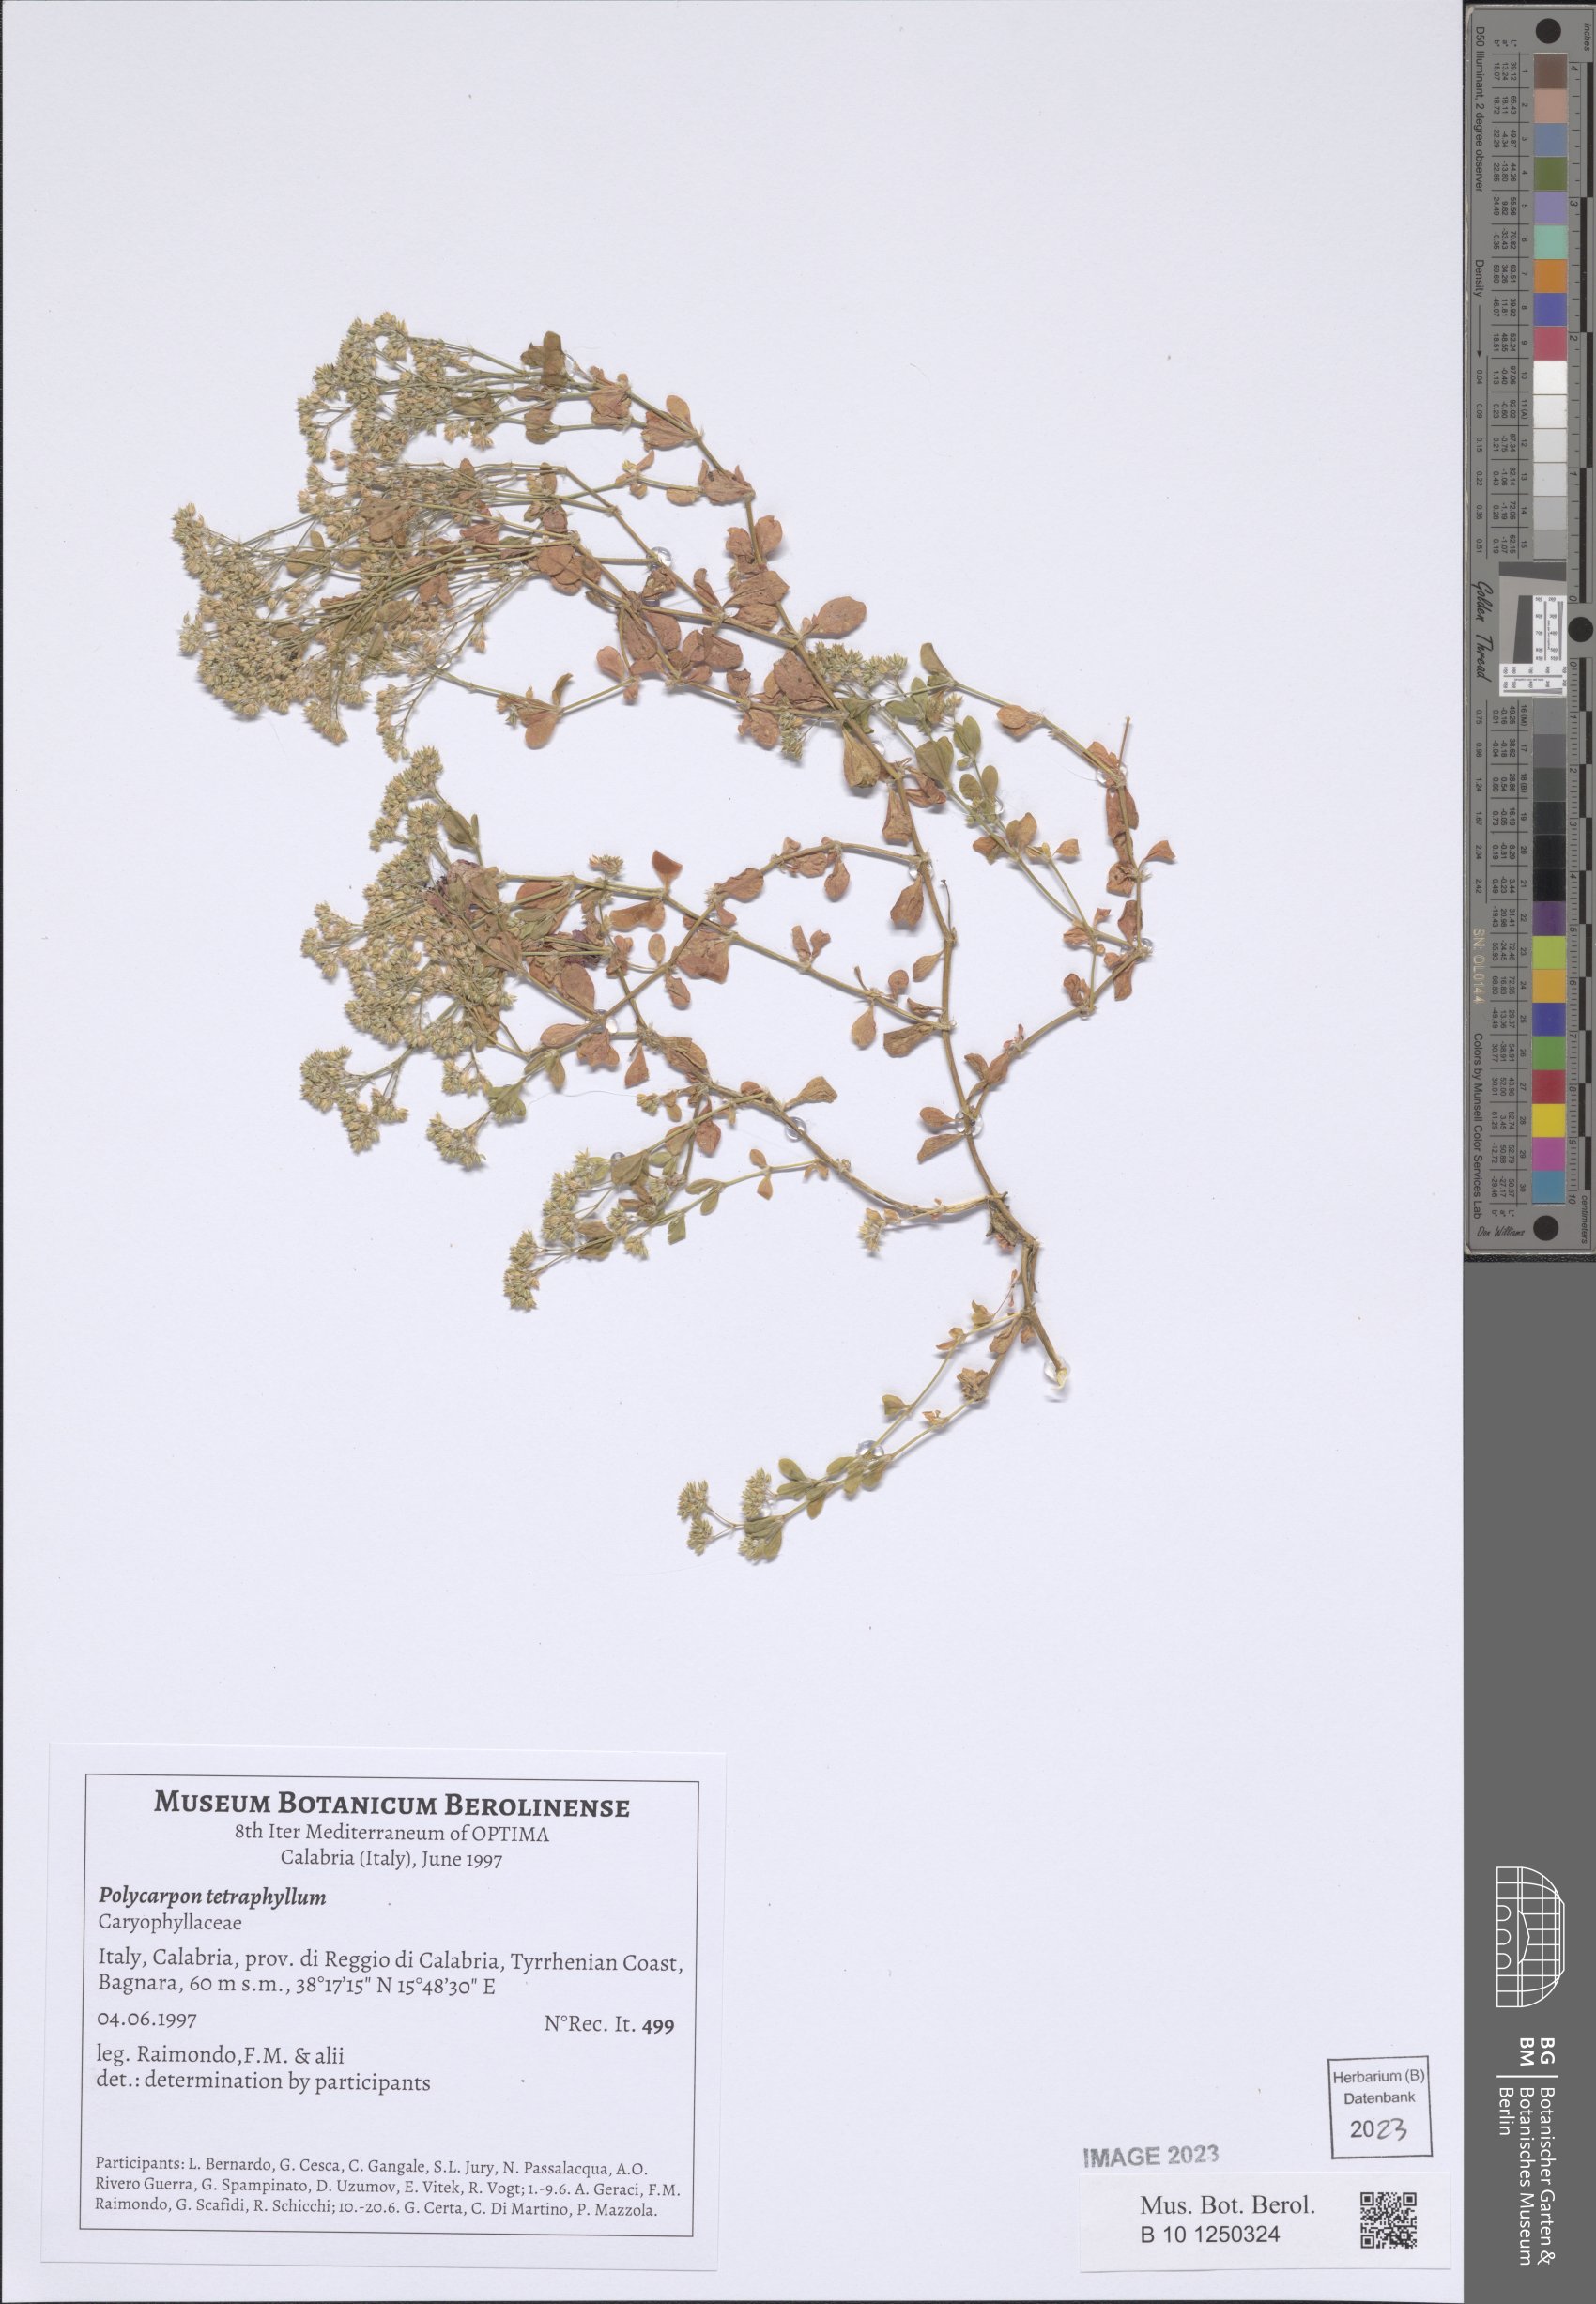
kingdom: Plantae
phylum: Tracheophyta
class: Magnoliopsida
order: Caryophyllales
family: Caryophyllaceae
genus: Polycarpon
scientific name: Polycarpon tetraphyllum
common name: Four-leaved all-seed
